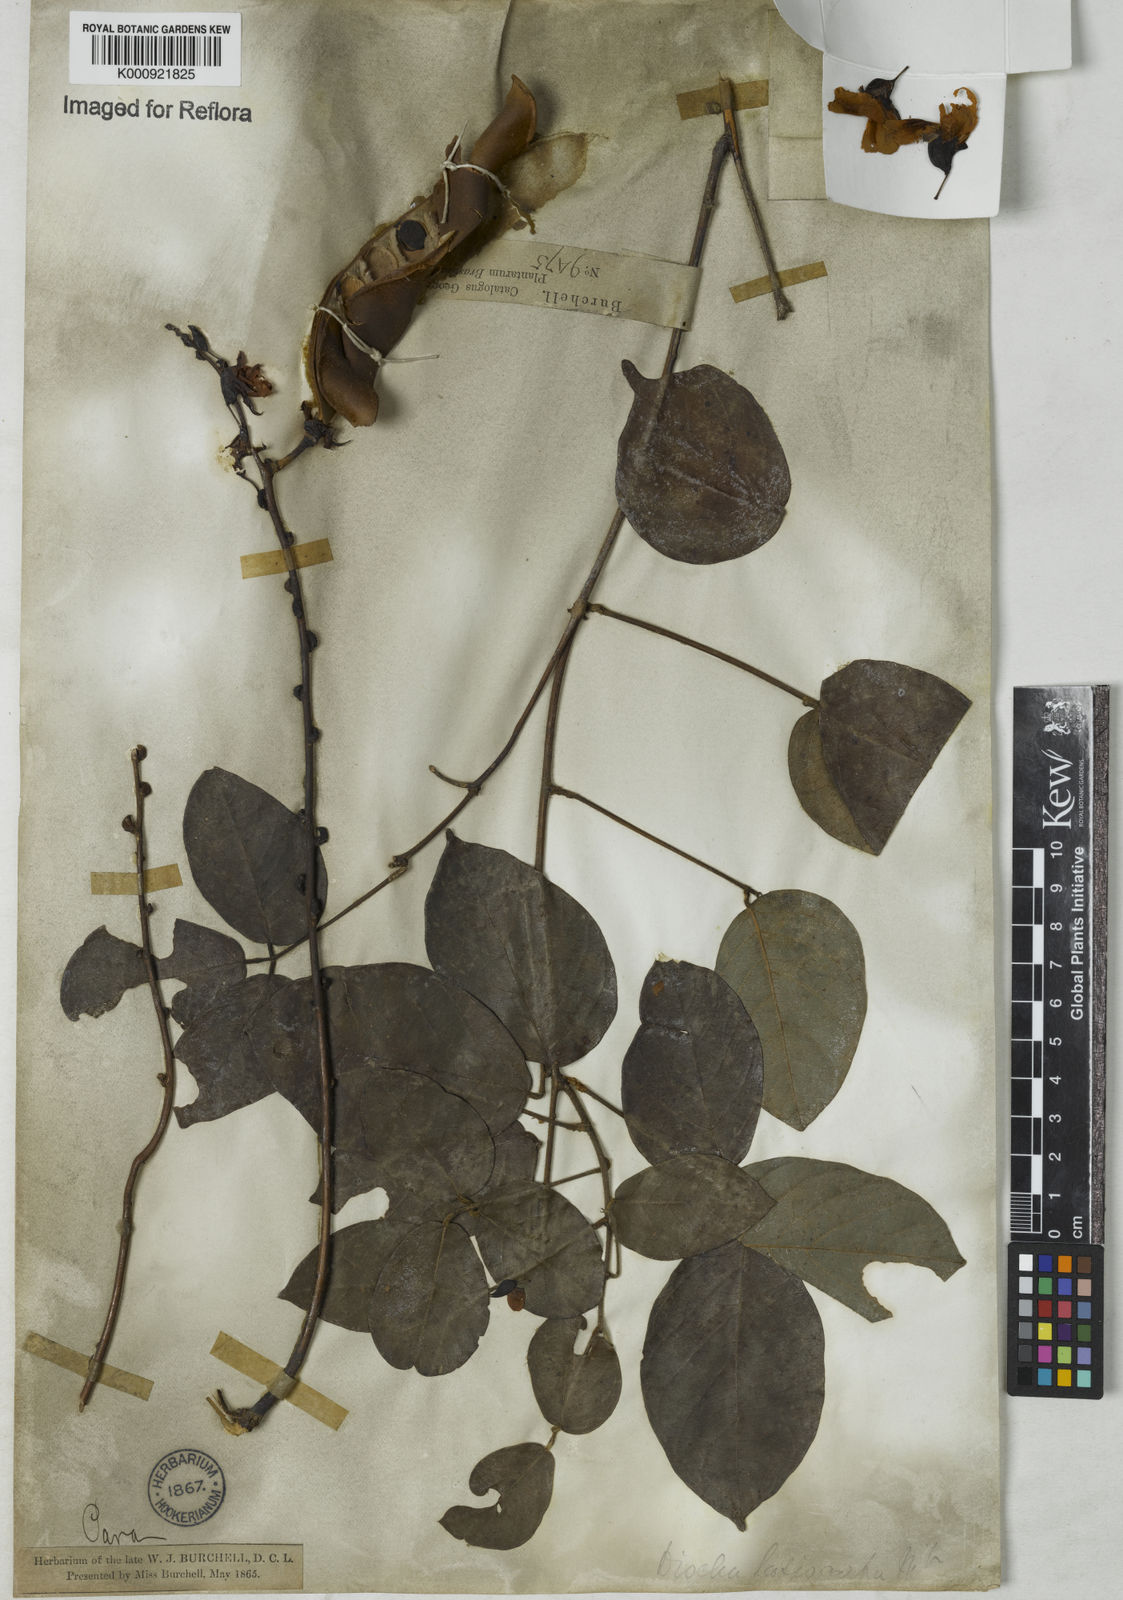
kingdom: Plantae
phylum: Tracheophyta
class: Magnoliopsida
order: Fabales
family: Fabaceae
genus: Dioclea
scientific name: Dioclea virgata
